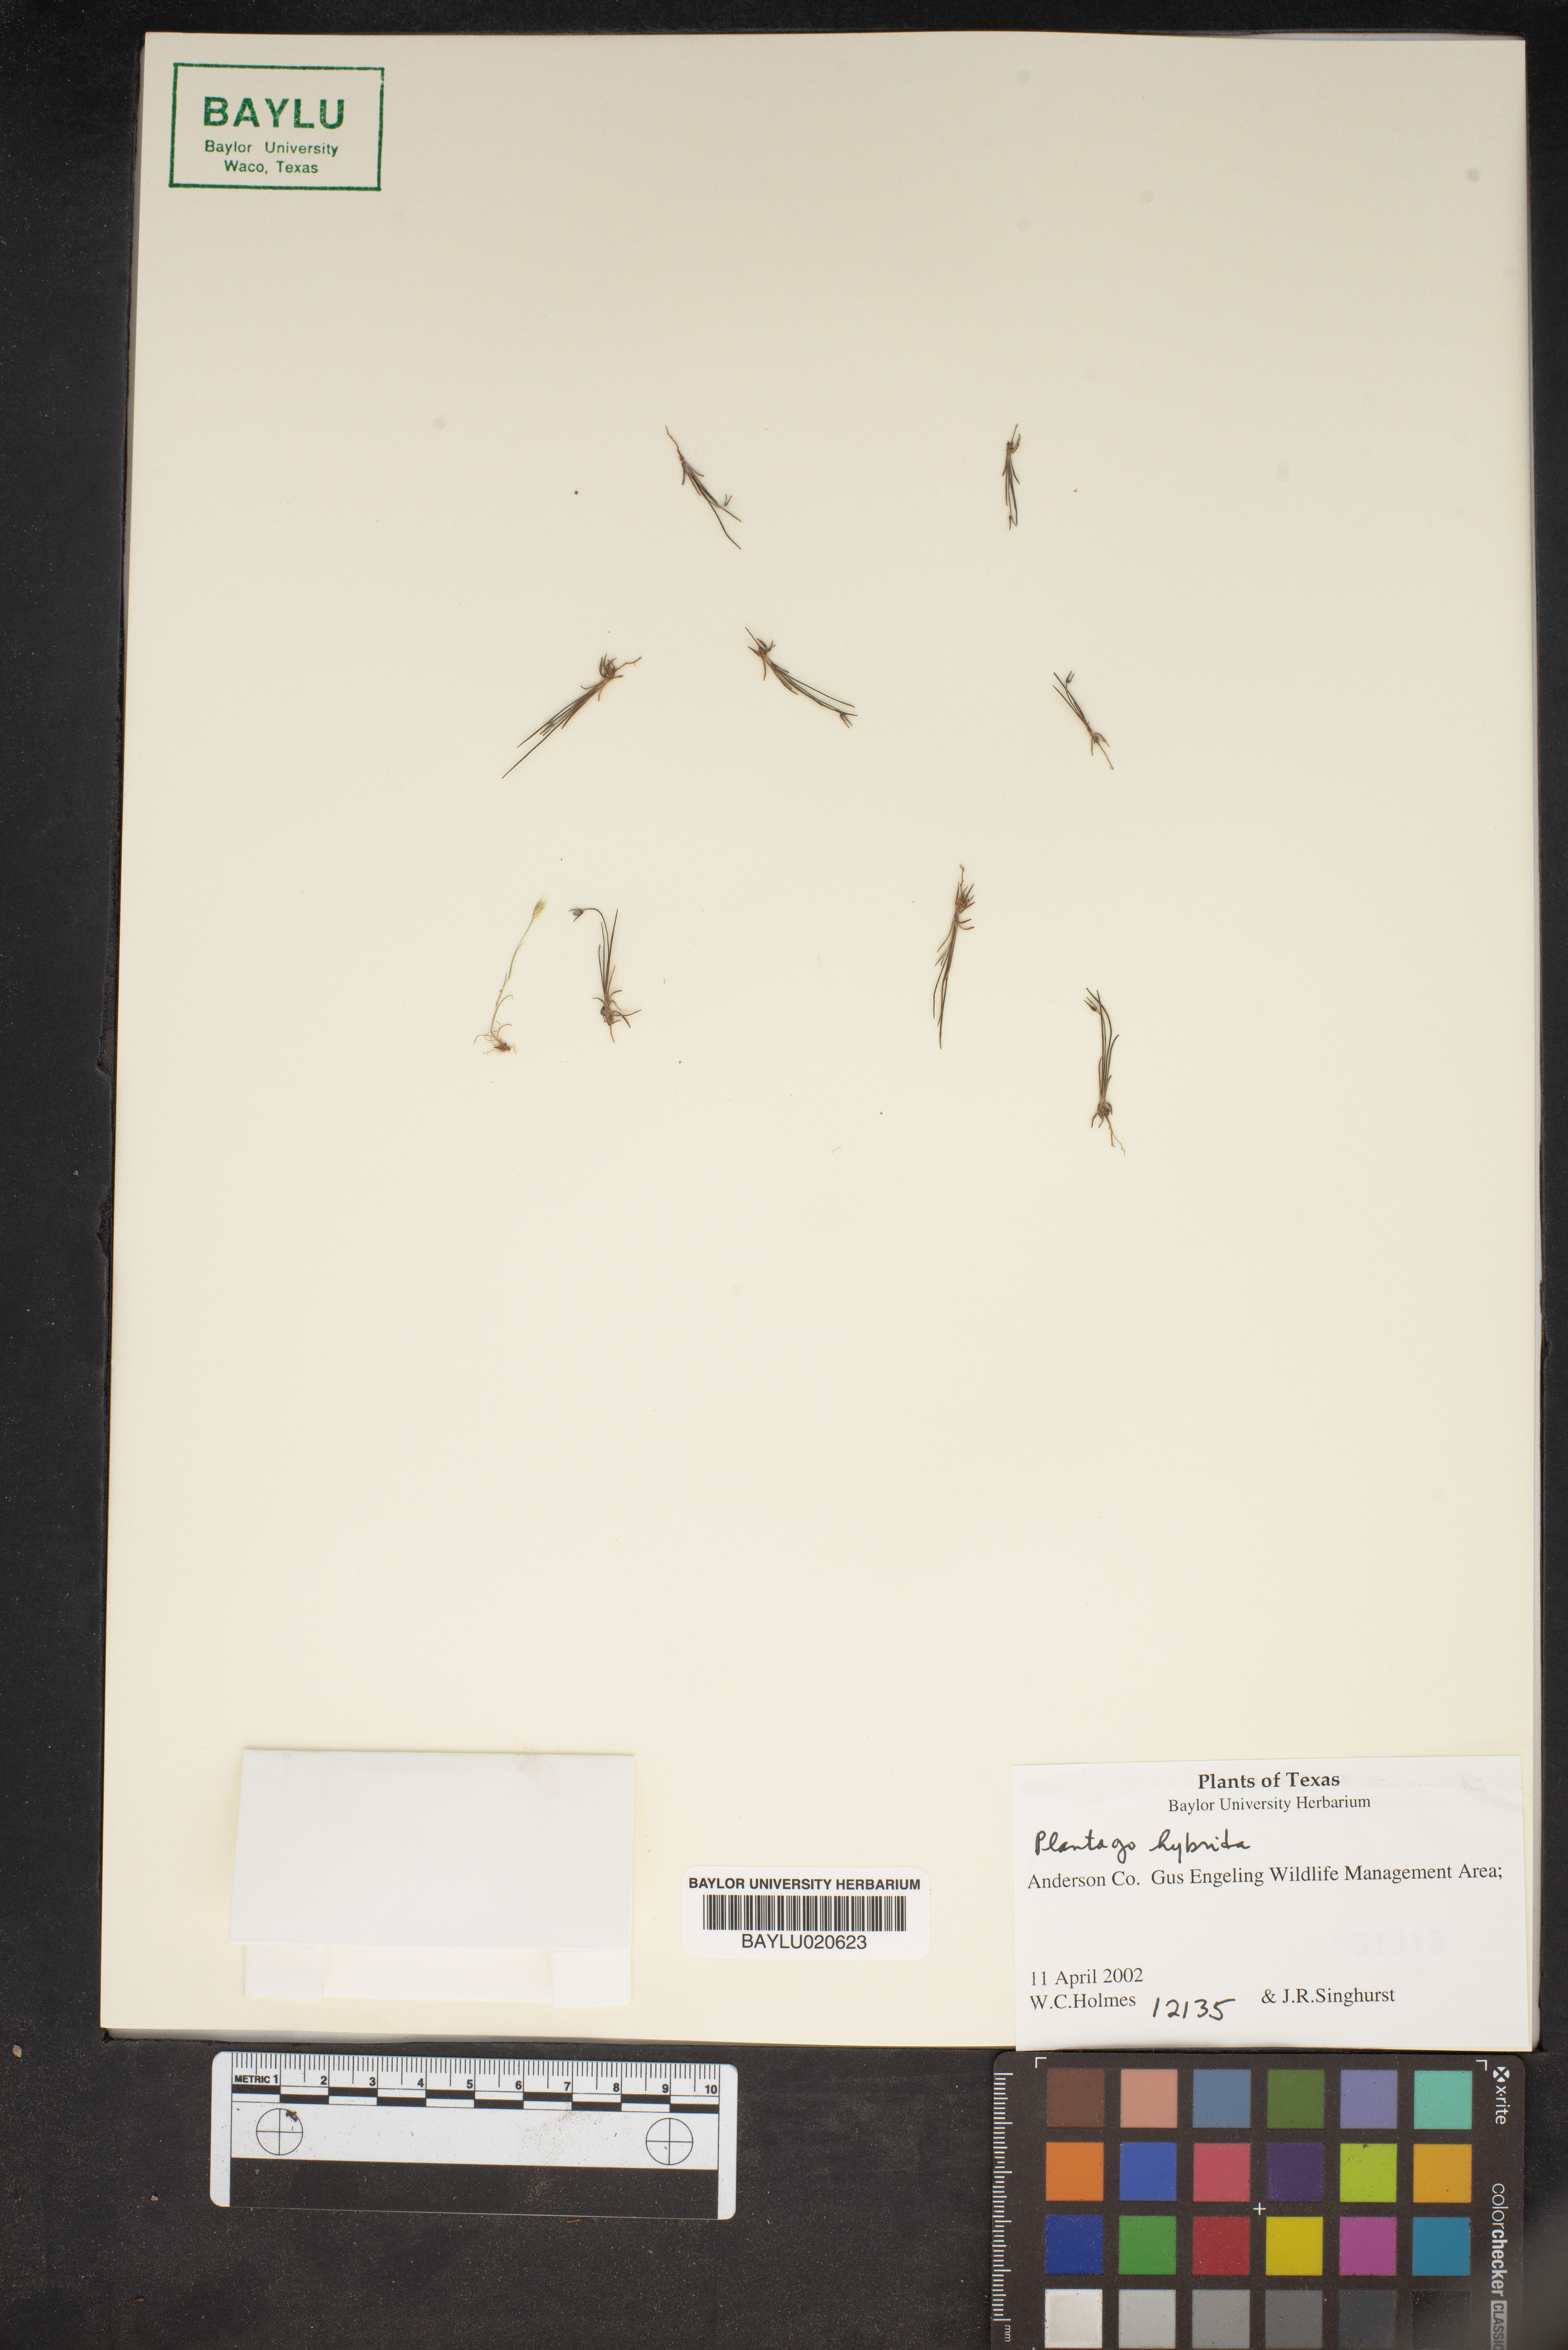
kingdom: Plantae
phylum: Tracheophyta
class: Magnoliopsida
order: Lamiales
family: Plantaginaceae
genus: Plantago
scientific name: Plantago pusilla
